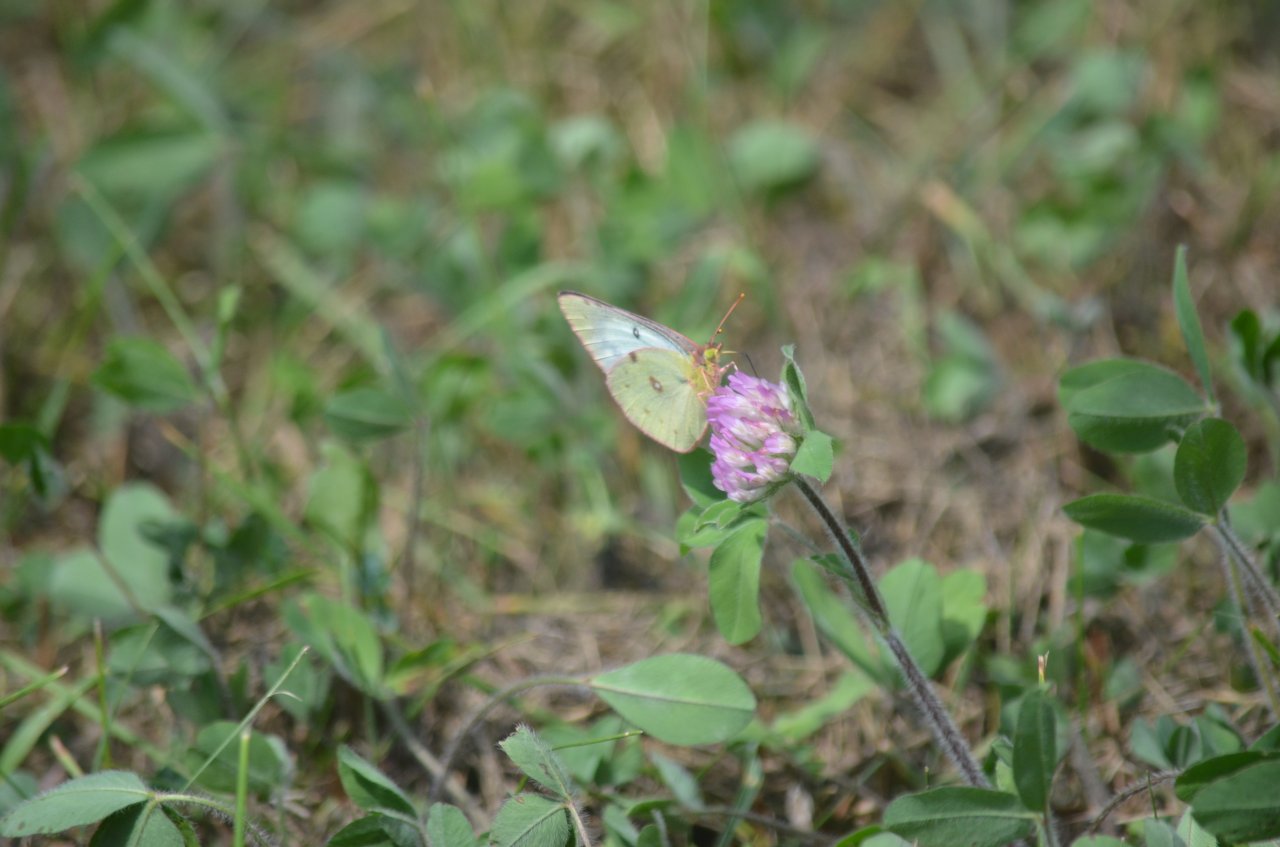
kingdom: Animalia
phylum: Arthropoda
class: Insecta
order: Lepidoptera
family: Pieridae
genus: Colias
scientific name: Colias philodice
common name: Clouded Sulphur
